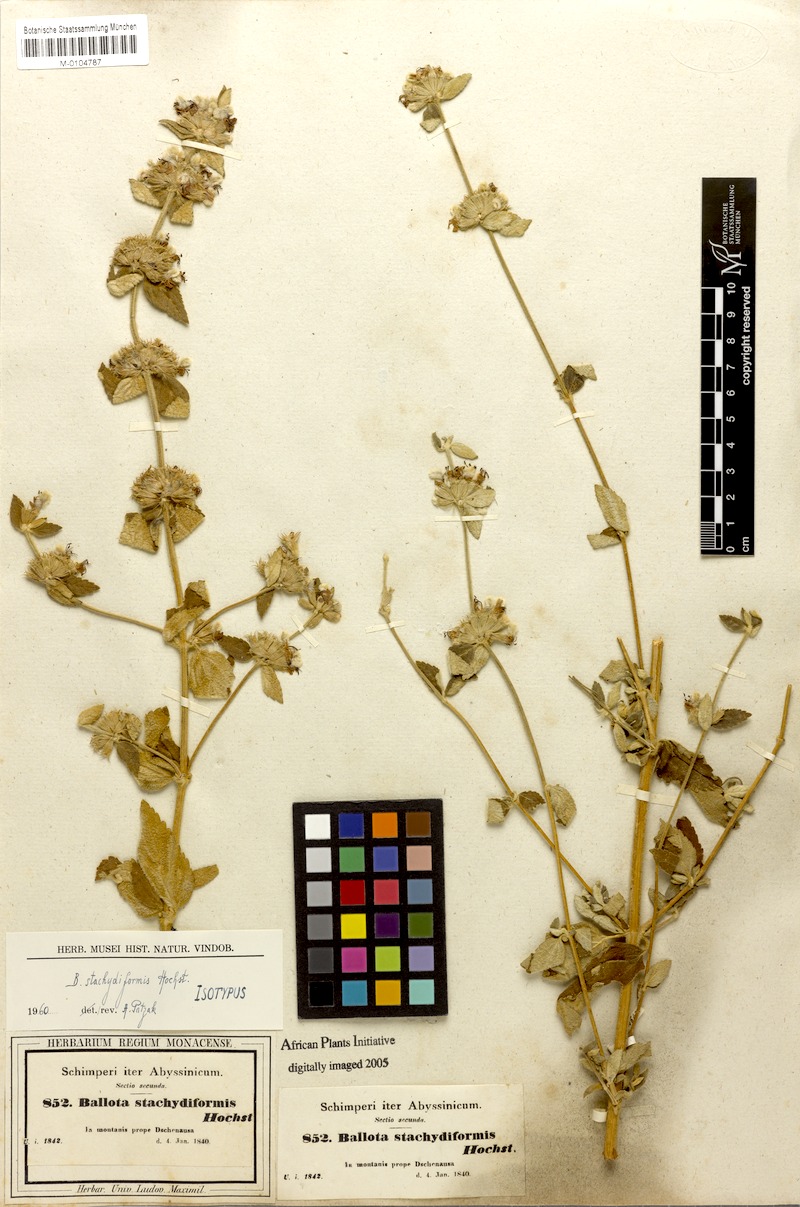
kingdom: Plantae
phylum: Tracheophyta
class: Magnoliopsida
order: Lamiales
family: Lamiaceae
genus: Ballota
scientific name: Ballota stachydiformis
